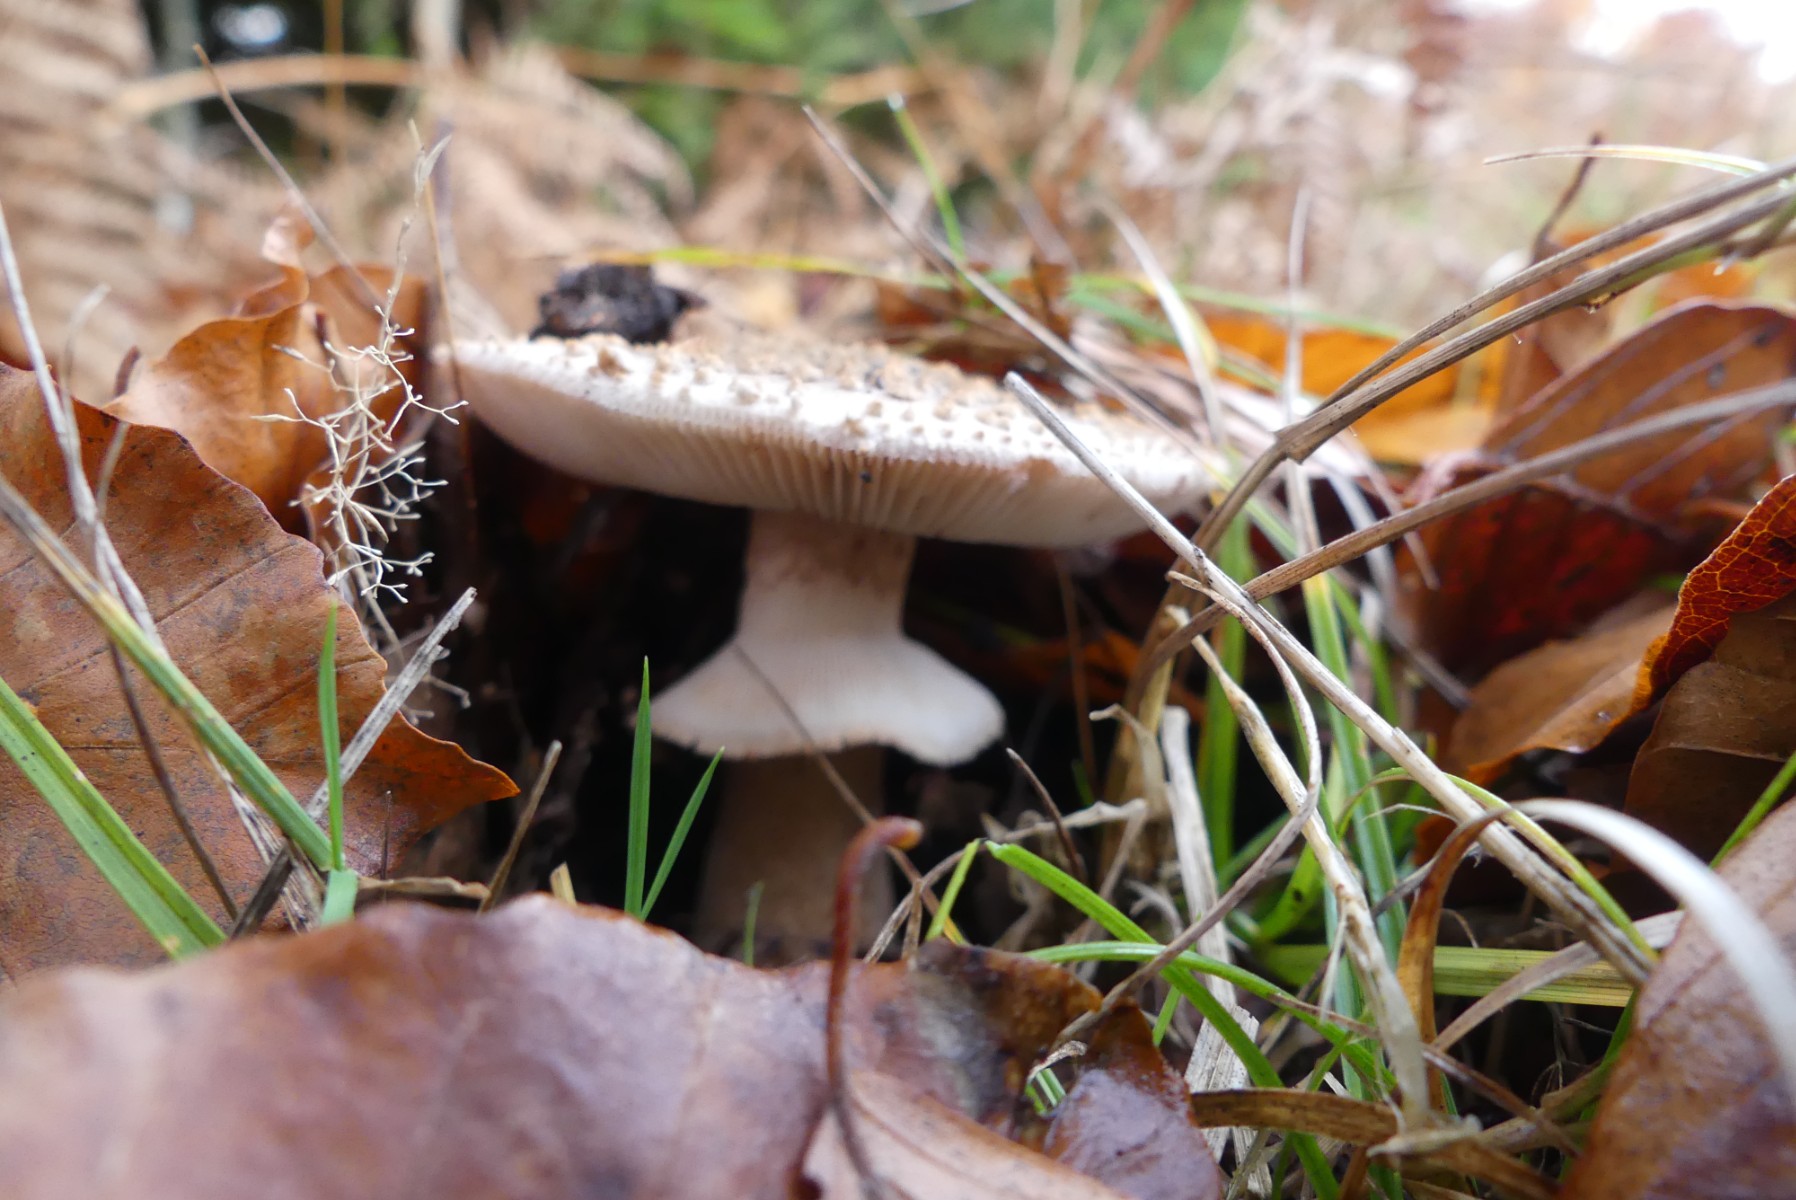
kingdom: Fungi
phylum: Basidiomycota
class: Agaricomycetes
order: Agaricales
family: Amanitaceae
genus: Amanita
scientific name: Amanita rubescens
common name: rødmende fluesvamp
